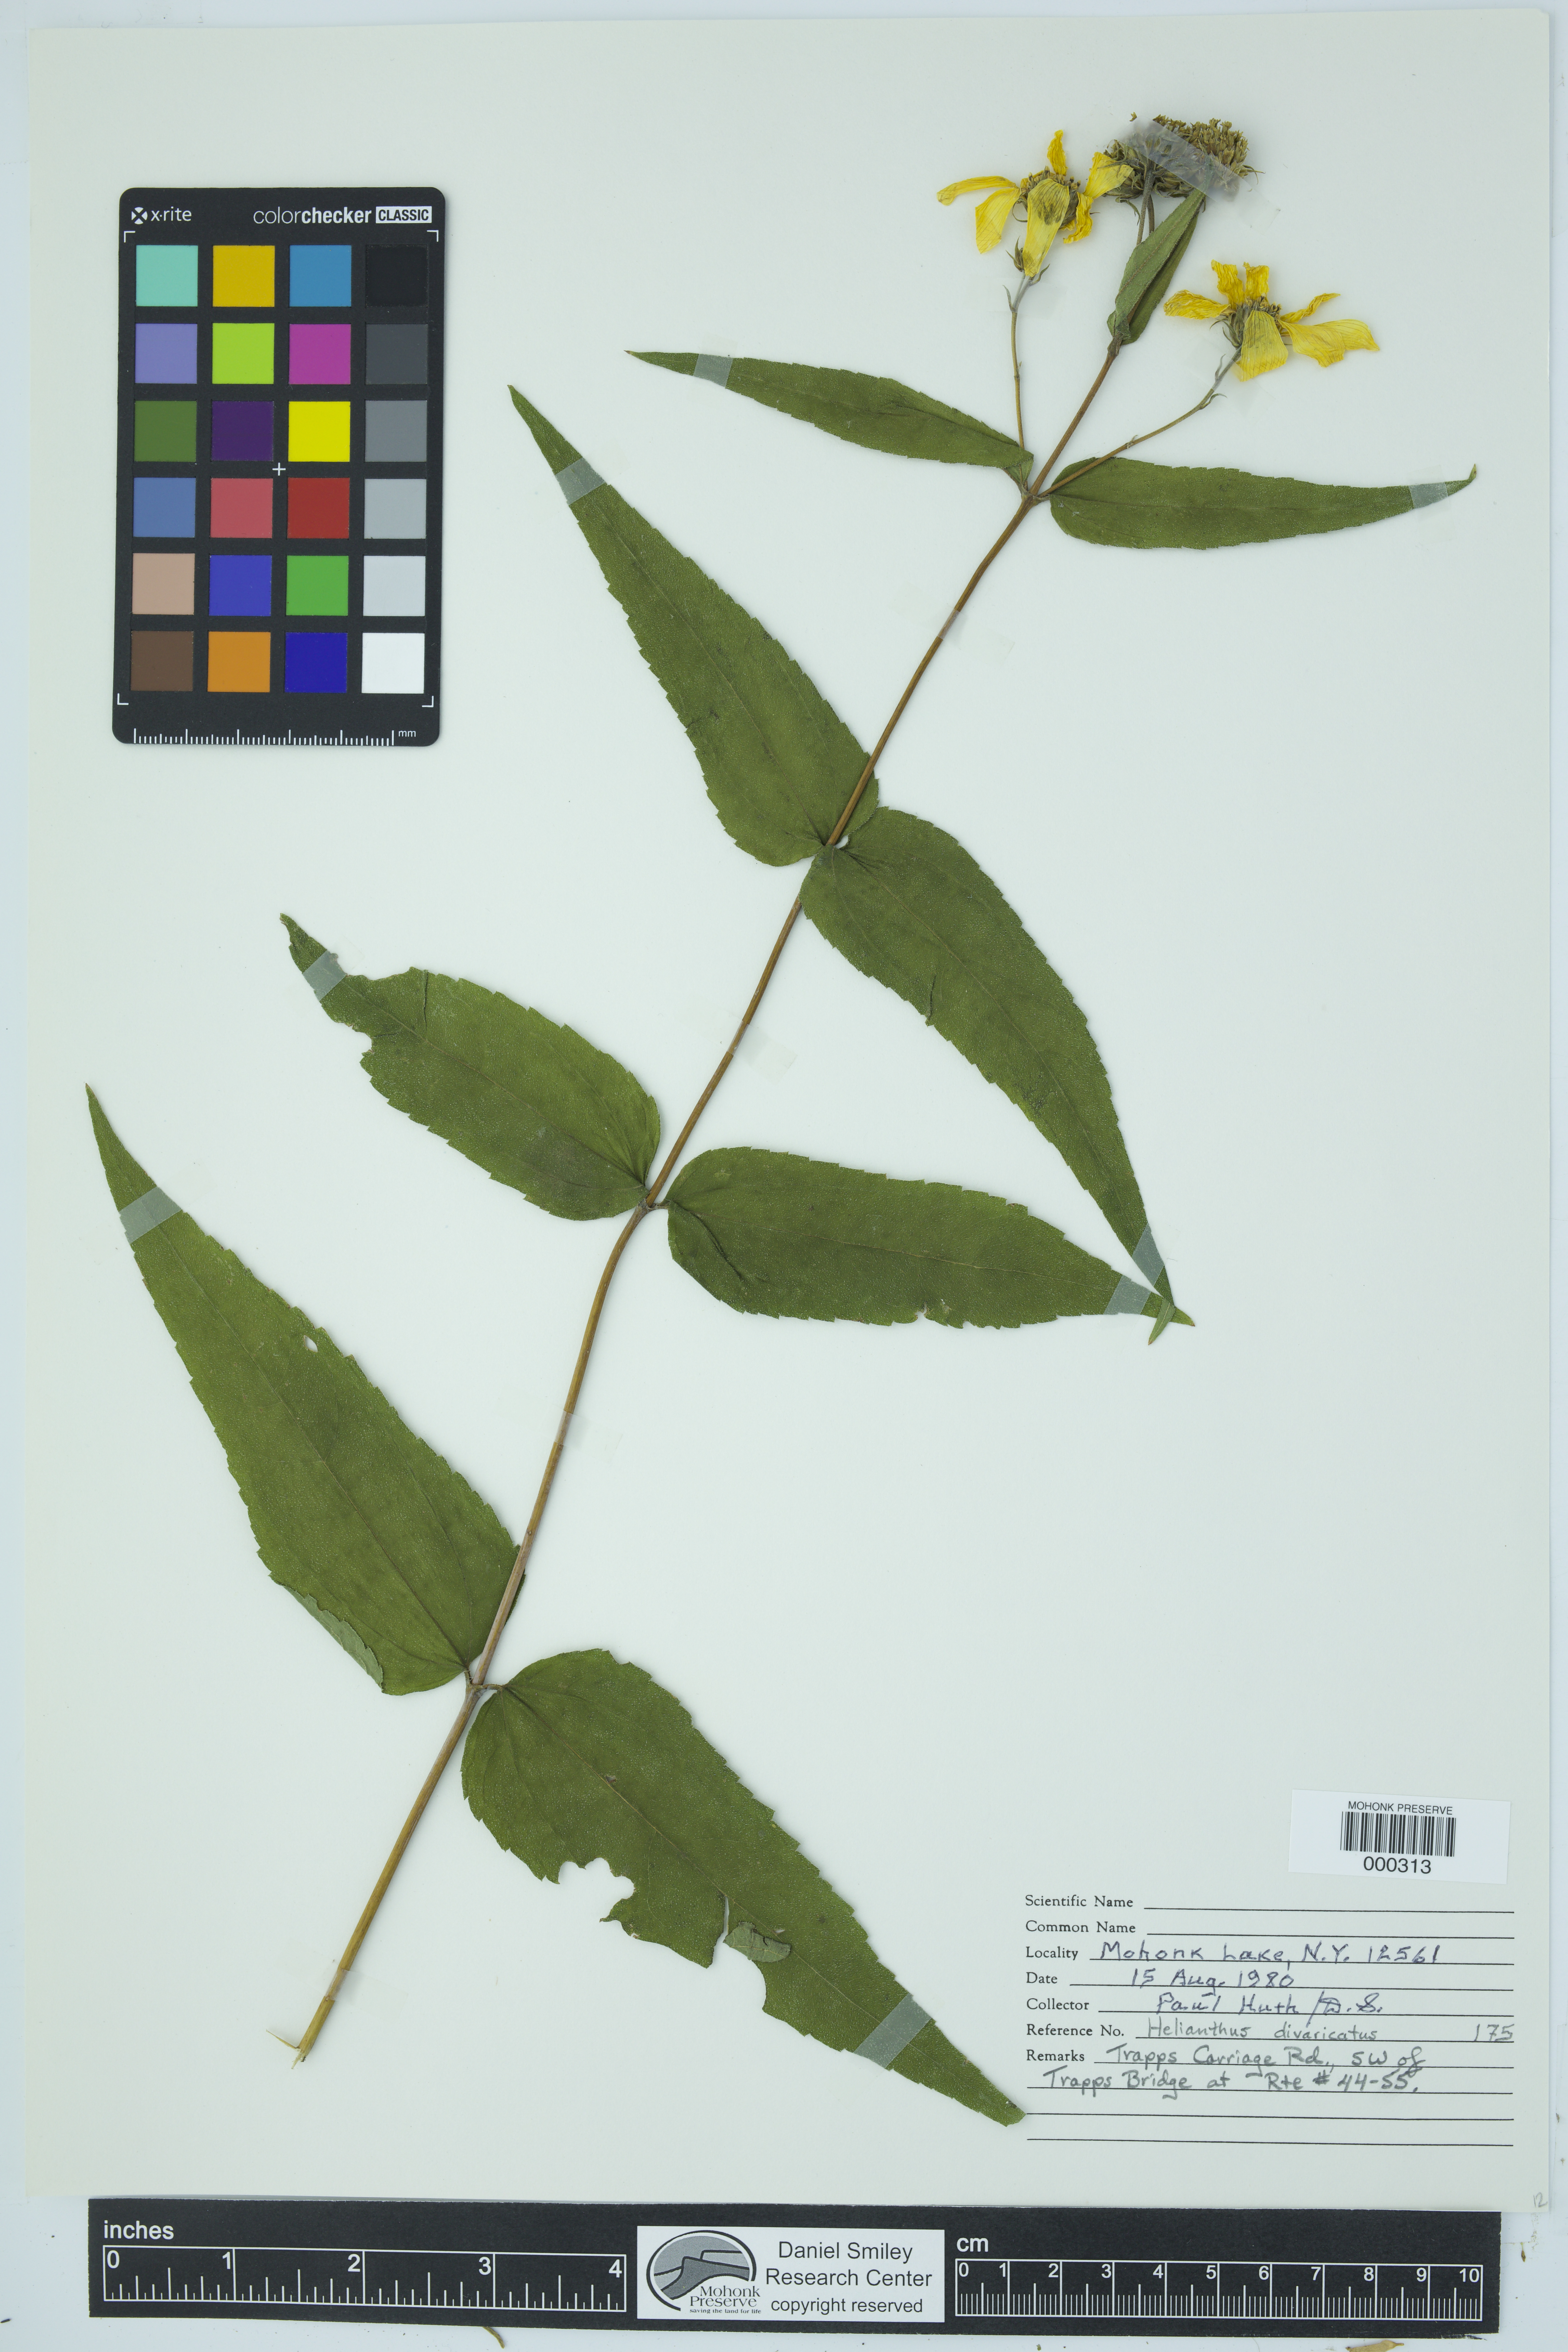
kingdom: Plantae
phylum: Tracheophyta
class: Magnoliopsida
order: Asterales
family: Asteraceae
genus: Helianthus
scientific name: Helianthus divaricatus
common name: Divergent sunflower
